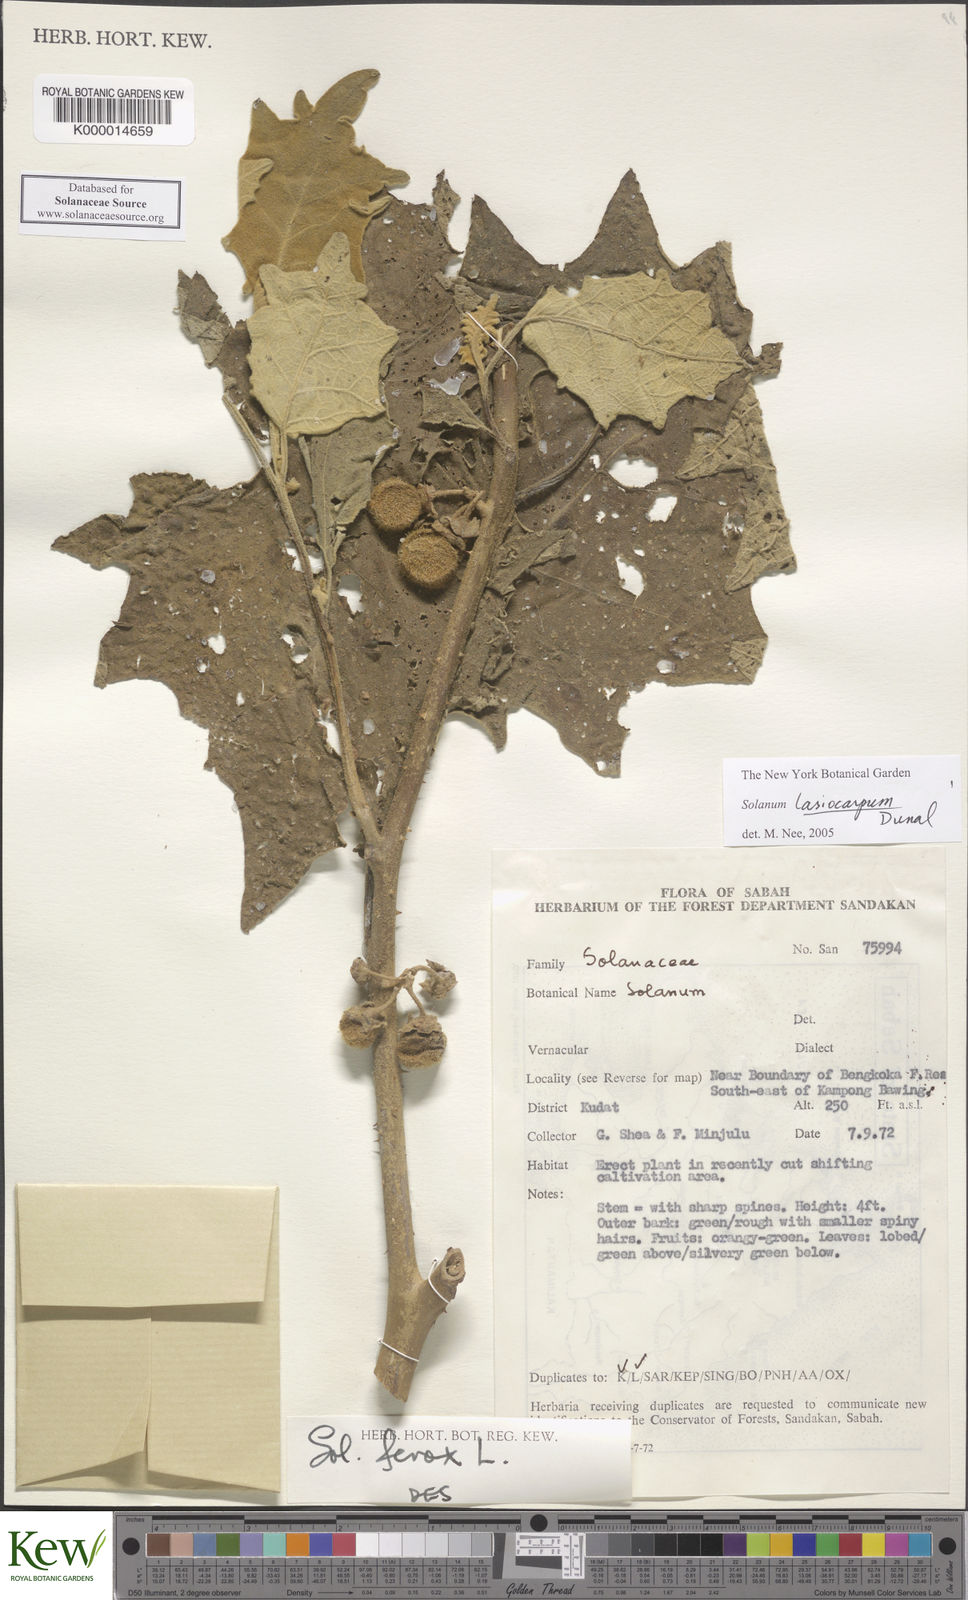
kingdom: Plantae
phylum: Tracheophyta
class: Magnoliopsida
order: Solanales
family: Solanaceae
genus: Solanum
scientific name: Solanum lasiocarpum
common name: Indian nightshade
